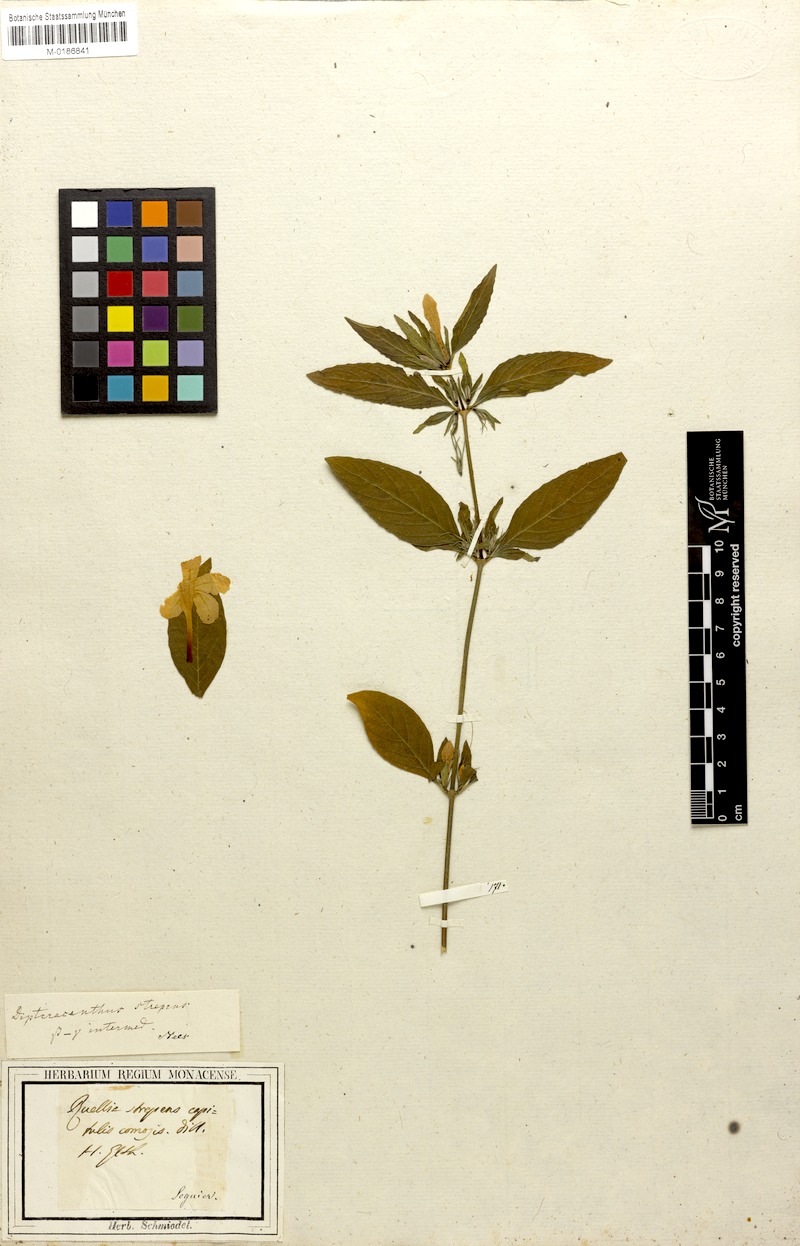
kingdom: Plantae
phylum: Tracheophyta
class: Magnoliopsida
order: Lamiales
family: Acanthaceae
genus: Ruellia
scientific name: Ruellia strepens
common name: Limestone wild petunia
